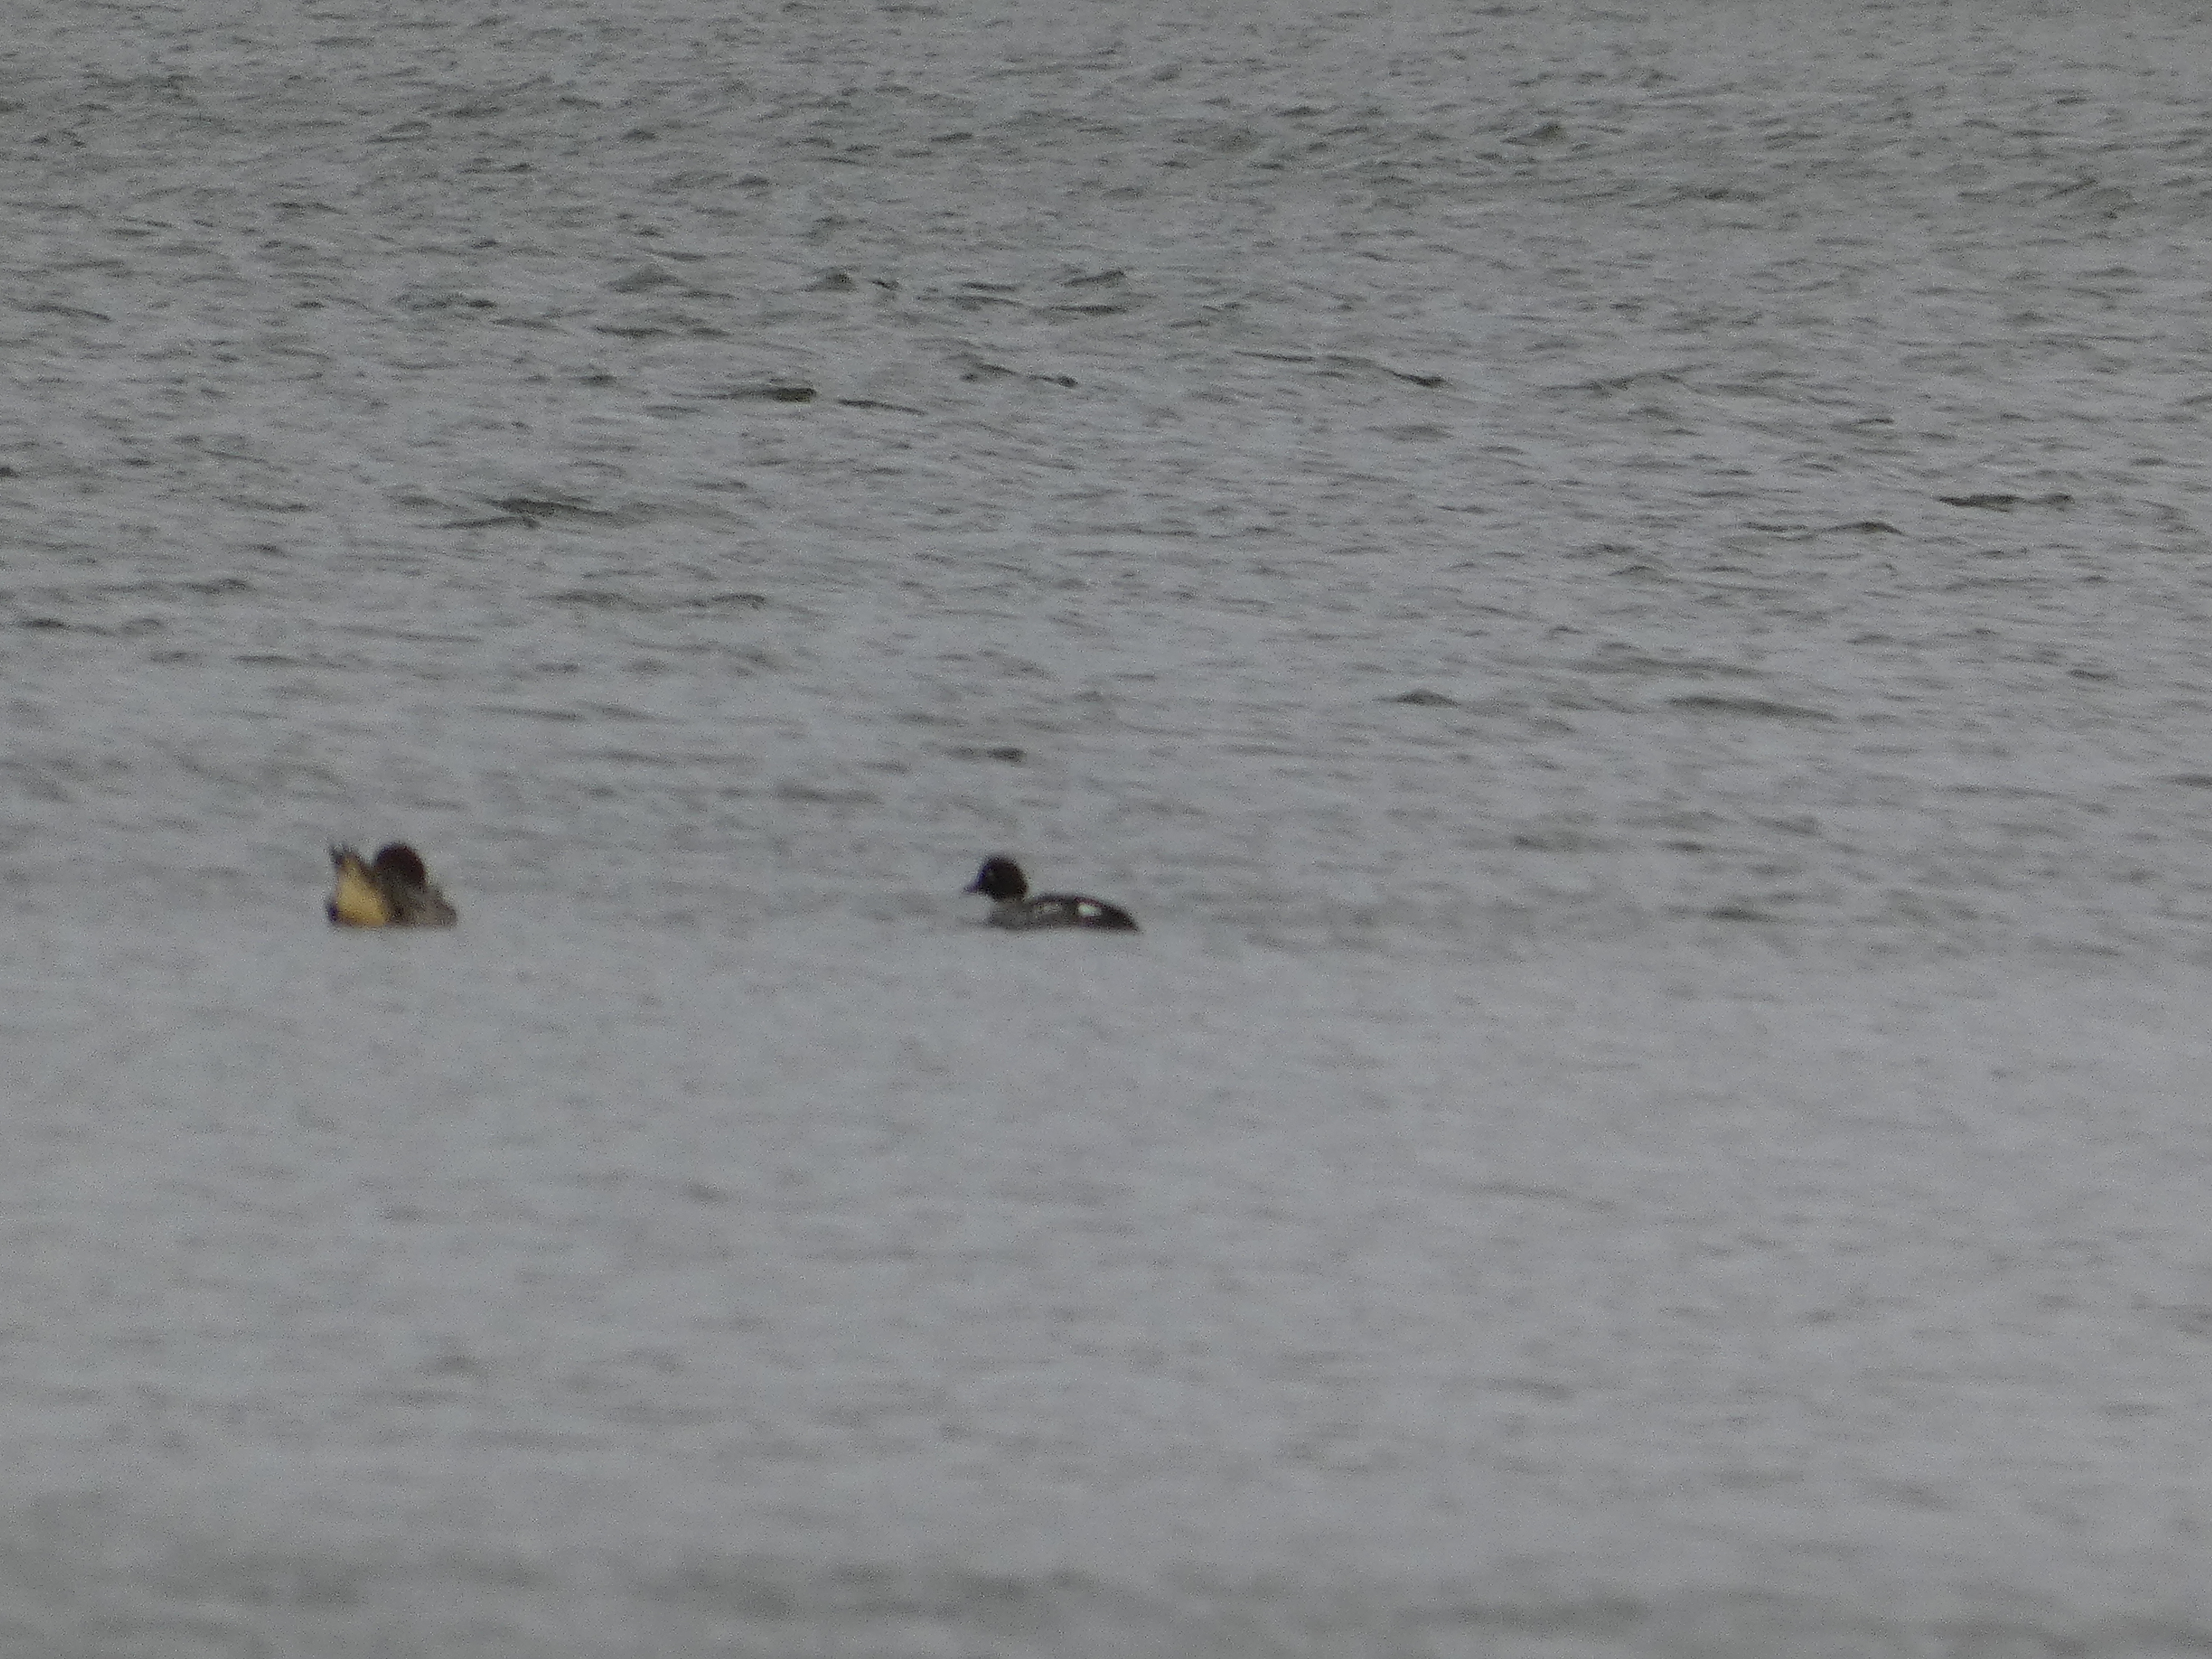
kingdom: Animalia
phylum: Chordata
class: Aves
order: Anseriformes
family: Anatidae
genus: Bucephala
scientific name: Bucephala clangula
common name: Hvinand
